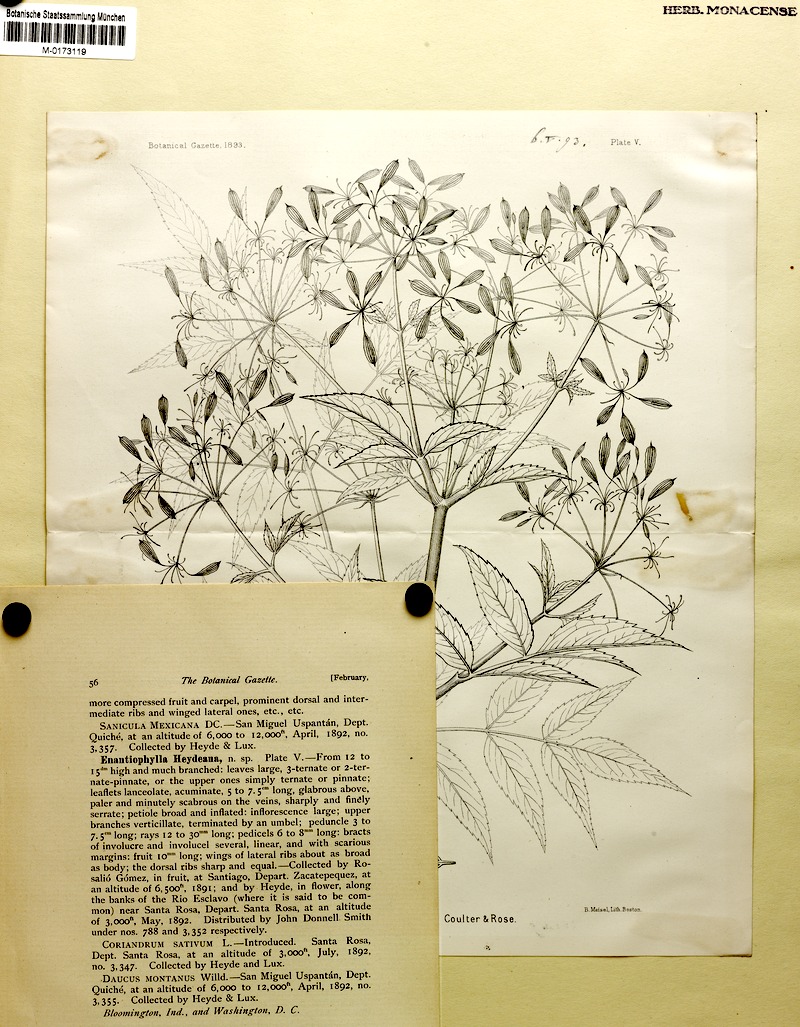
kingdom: Plantae
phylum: Tracheophyta
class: Magnoliopsida
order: Apiales
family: Apiaceae
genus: Enantiophylla
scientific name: Enantiophylla heydeana
